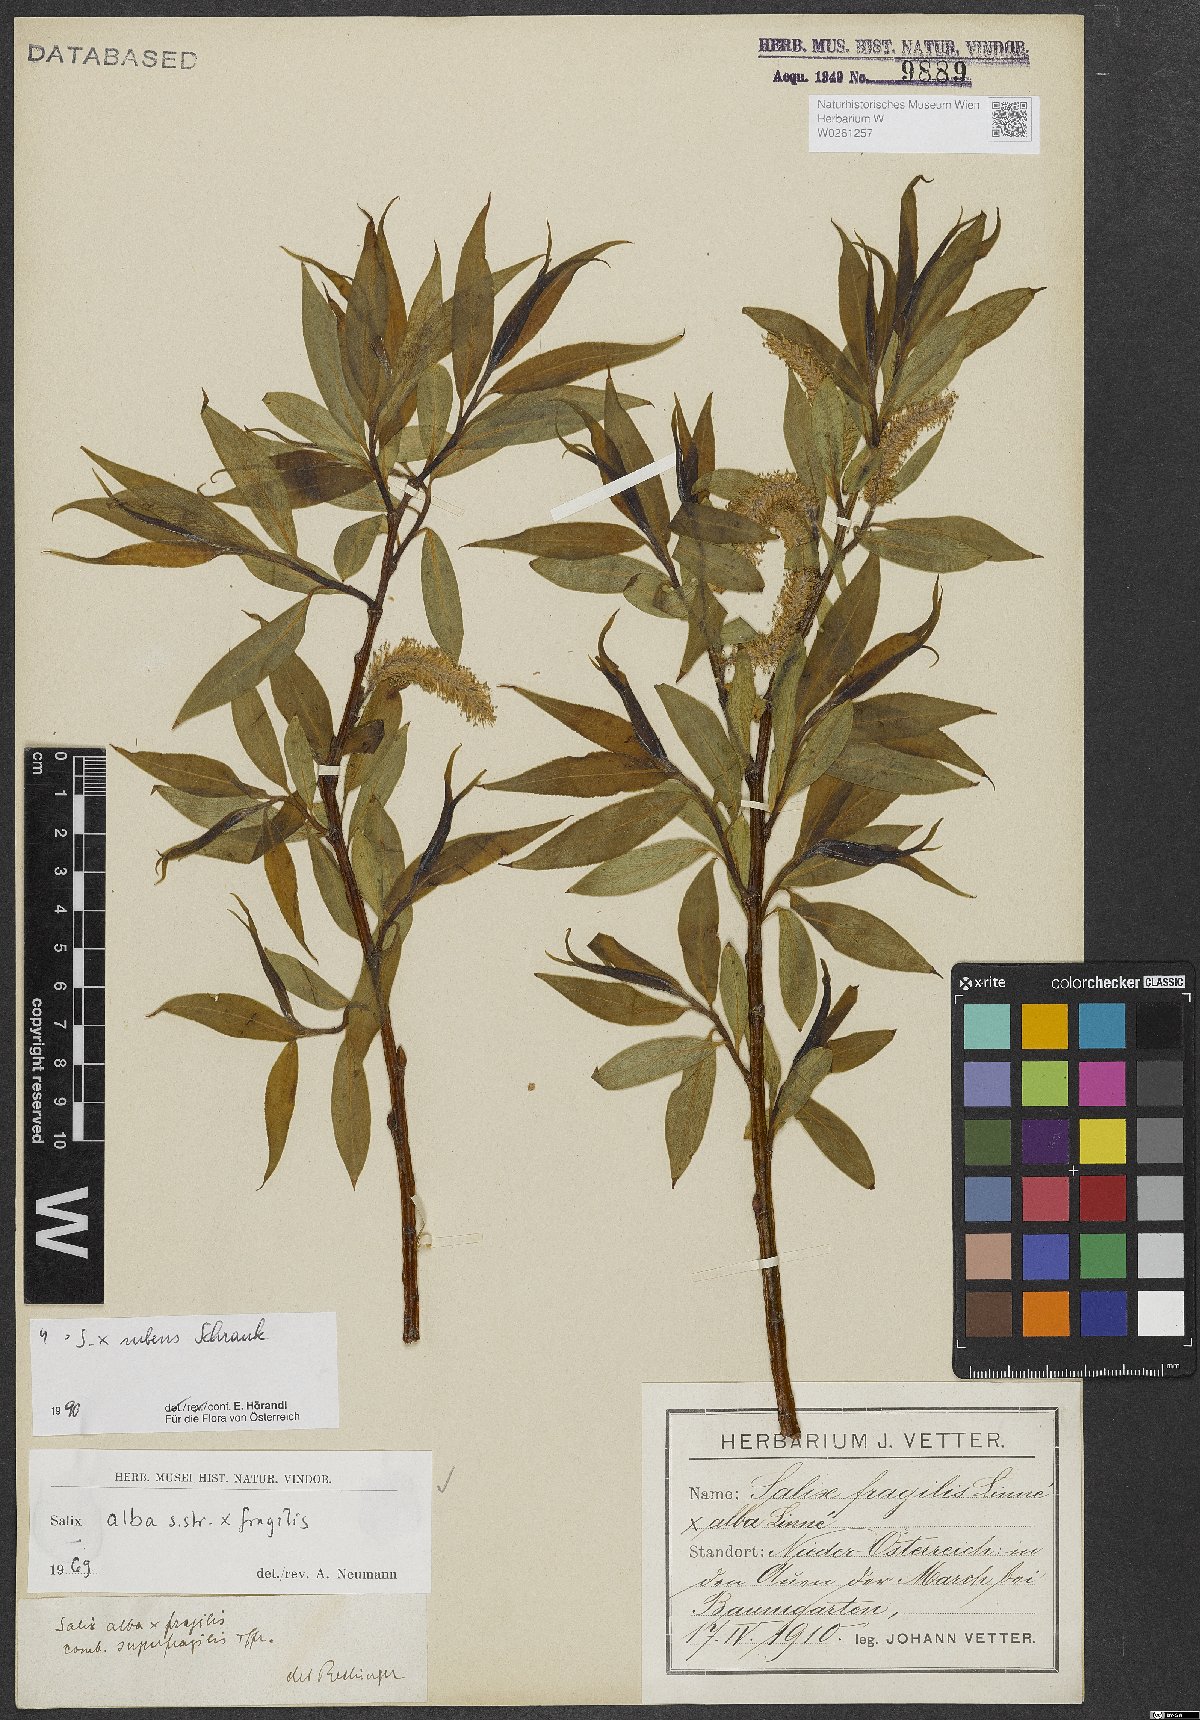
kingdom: Plantae
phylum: Tracheophyta
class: Magnoliopsida
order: Malpighiales
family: Salicaceae
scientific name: Salicaceae
